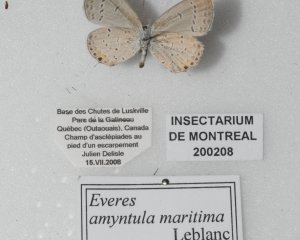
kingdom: Animalia
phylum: Arthropoda
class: Insecta
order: Lepidoptera
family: Lycaenidae
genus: Elkalyce
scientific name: Elkalyce amyntula
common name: Western Tailed-Blue
